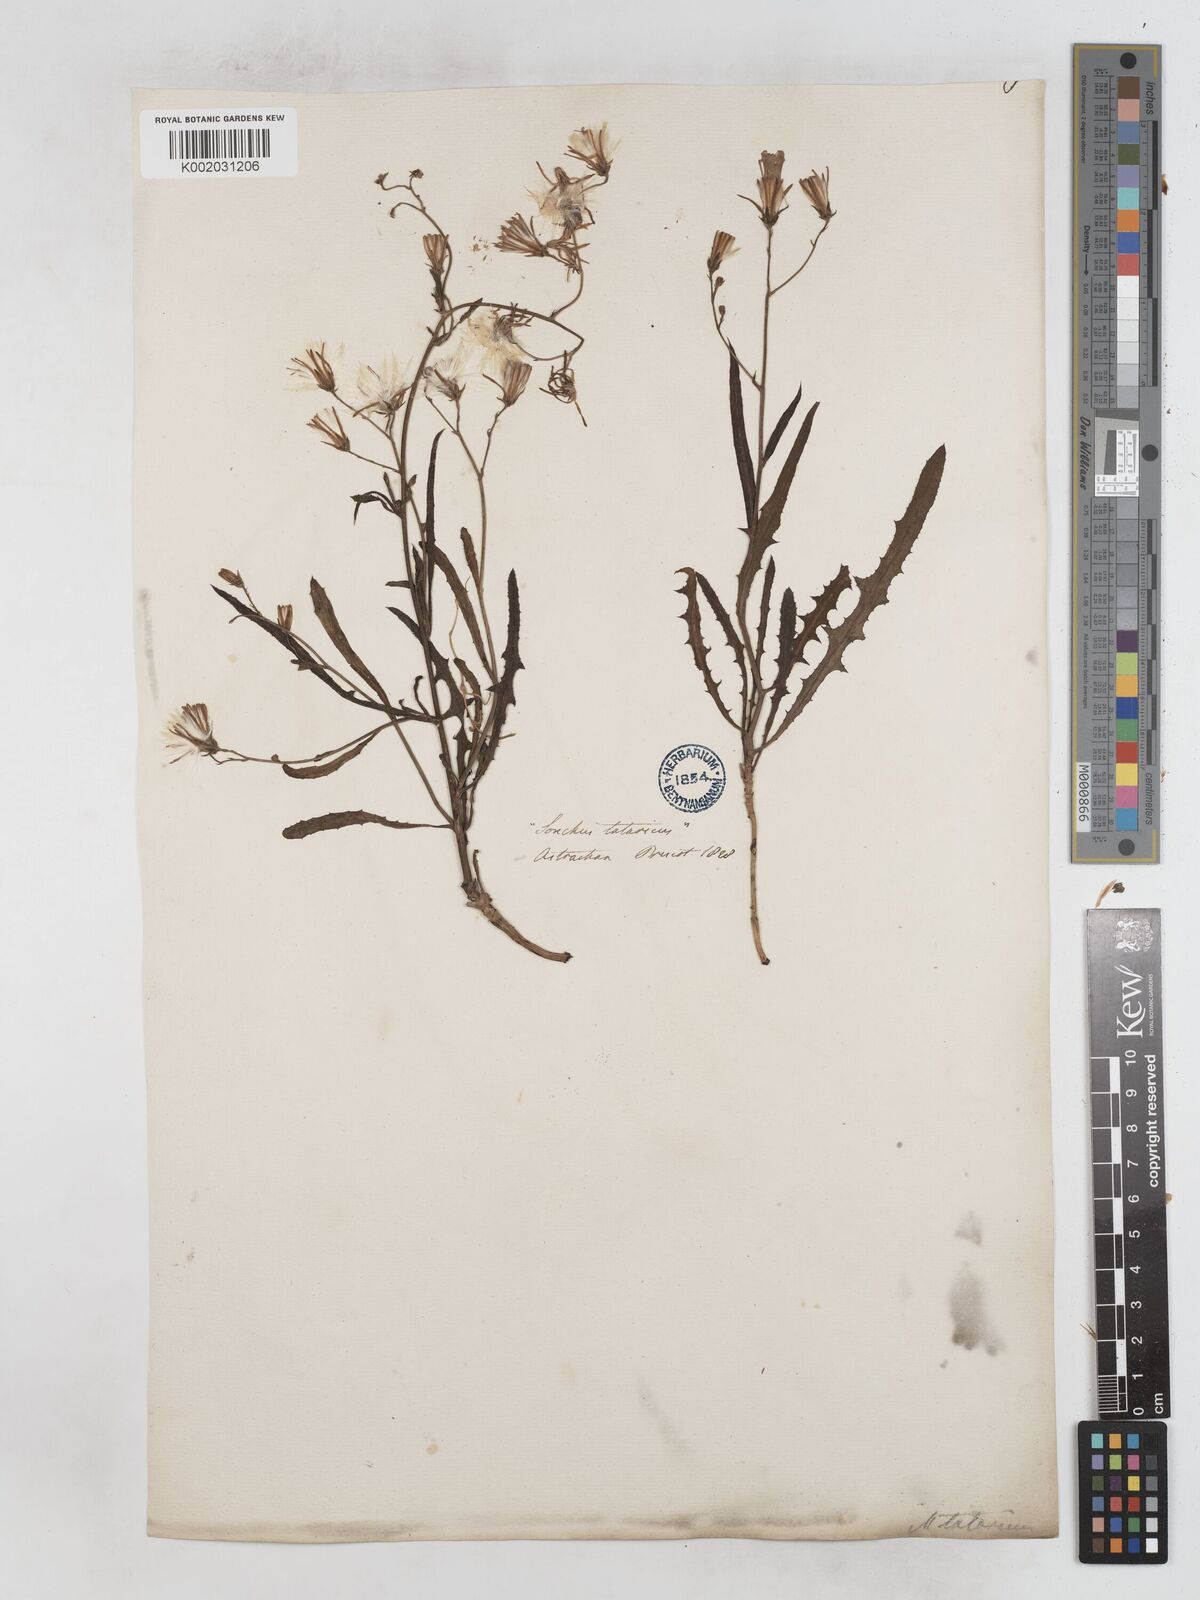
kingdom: Plantae
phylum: Tracheophyta
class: Magnoliopsida
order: Asterales
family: Asteraceae
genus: Lactuca
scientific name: Lactuca tatarica
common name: Blue lettuce
